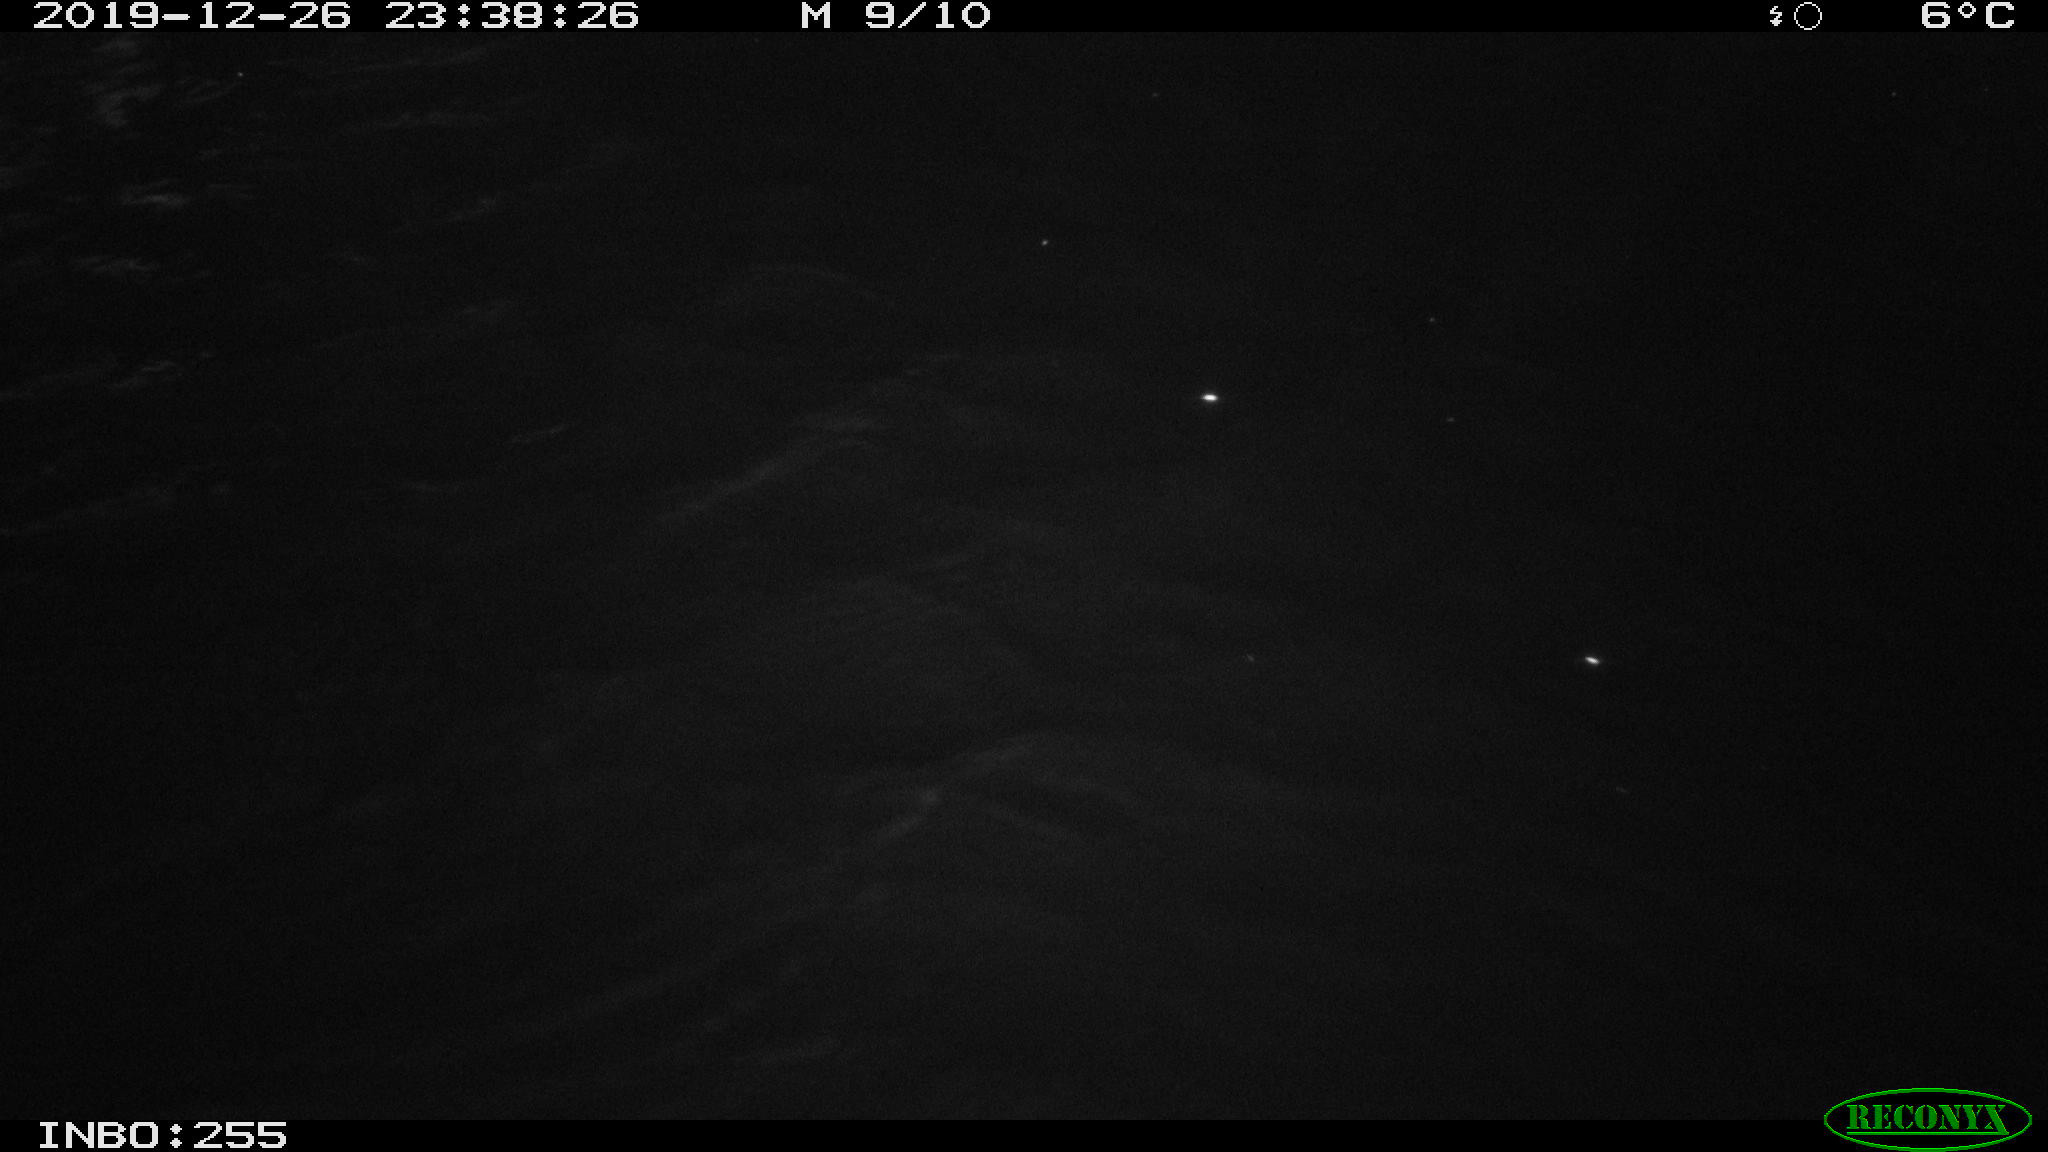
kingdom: Animalia
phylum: Chordata
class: Mammalia
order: Rodentia
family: Cricetidae
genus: Ondatra
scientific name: Ondatra zibethicus
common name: Muskrat
